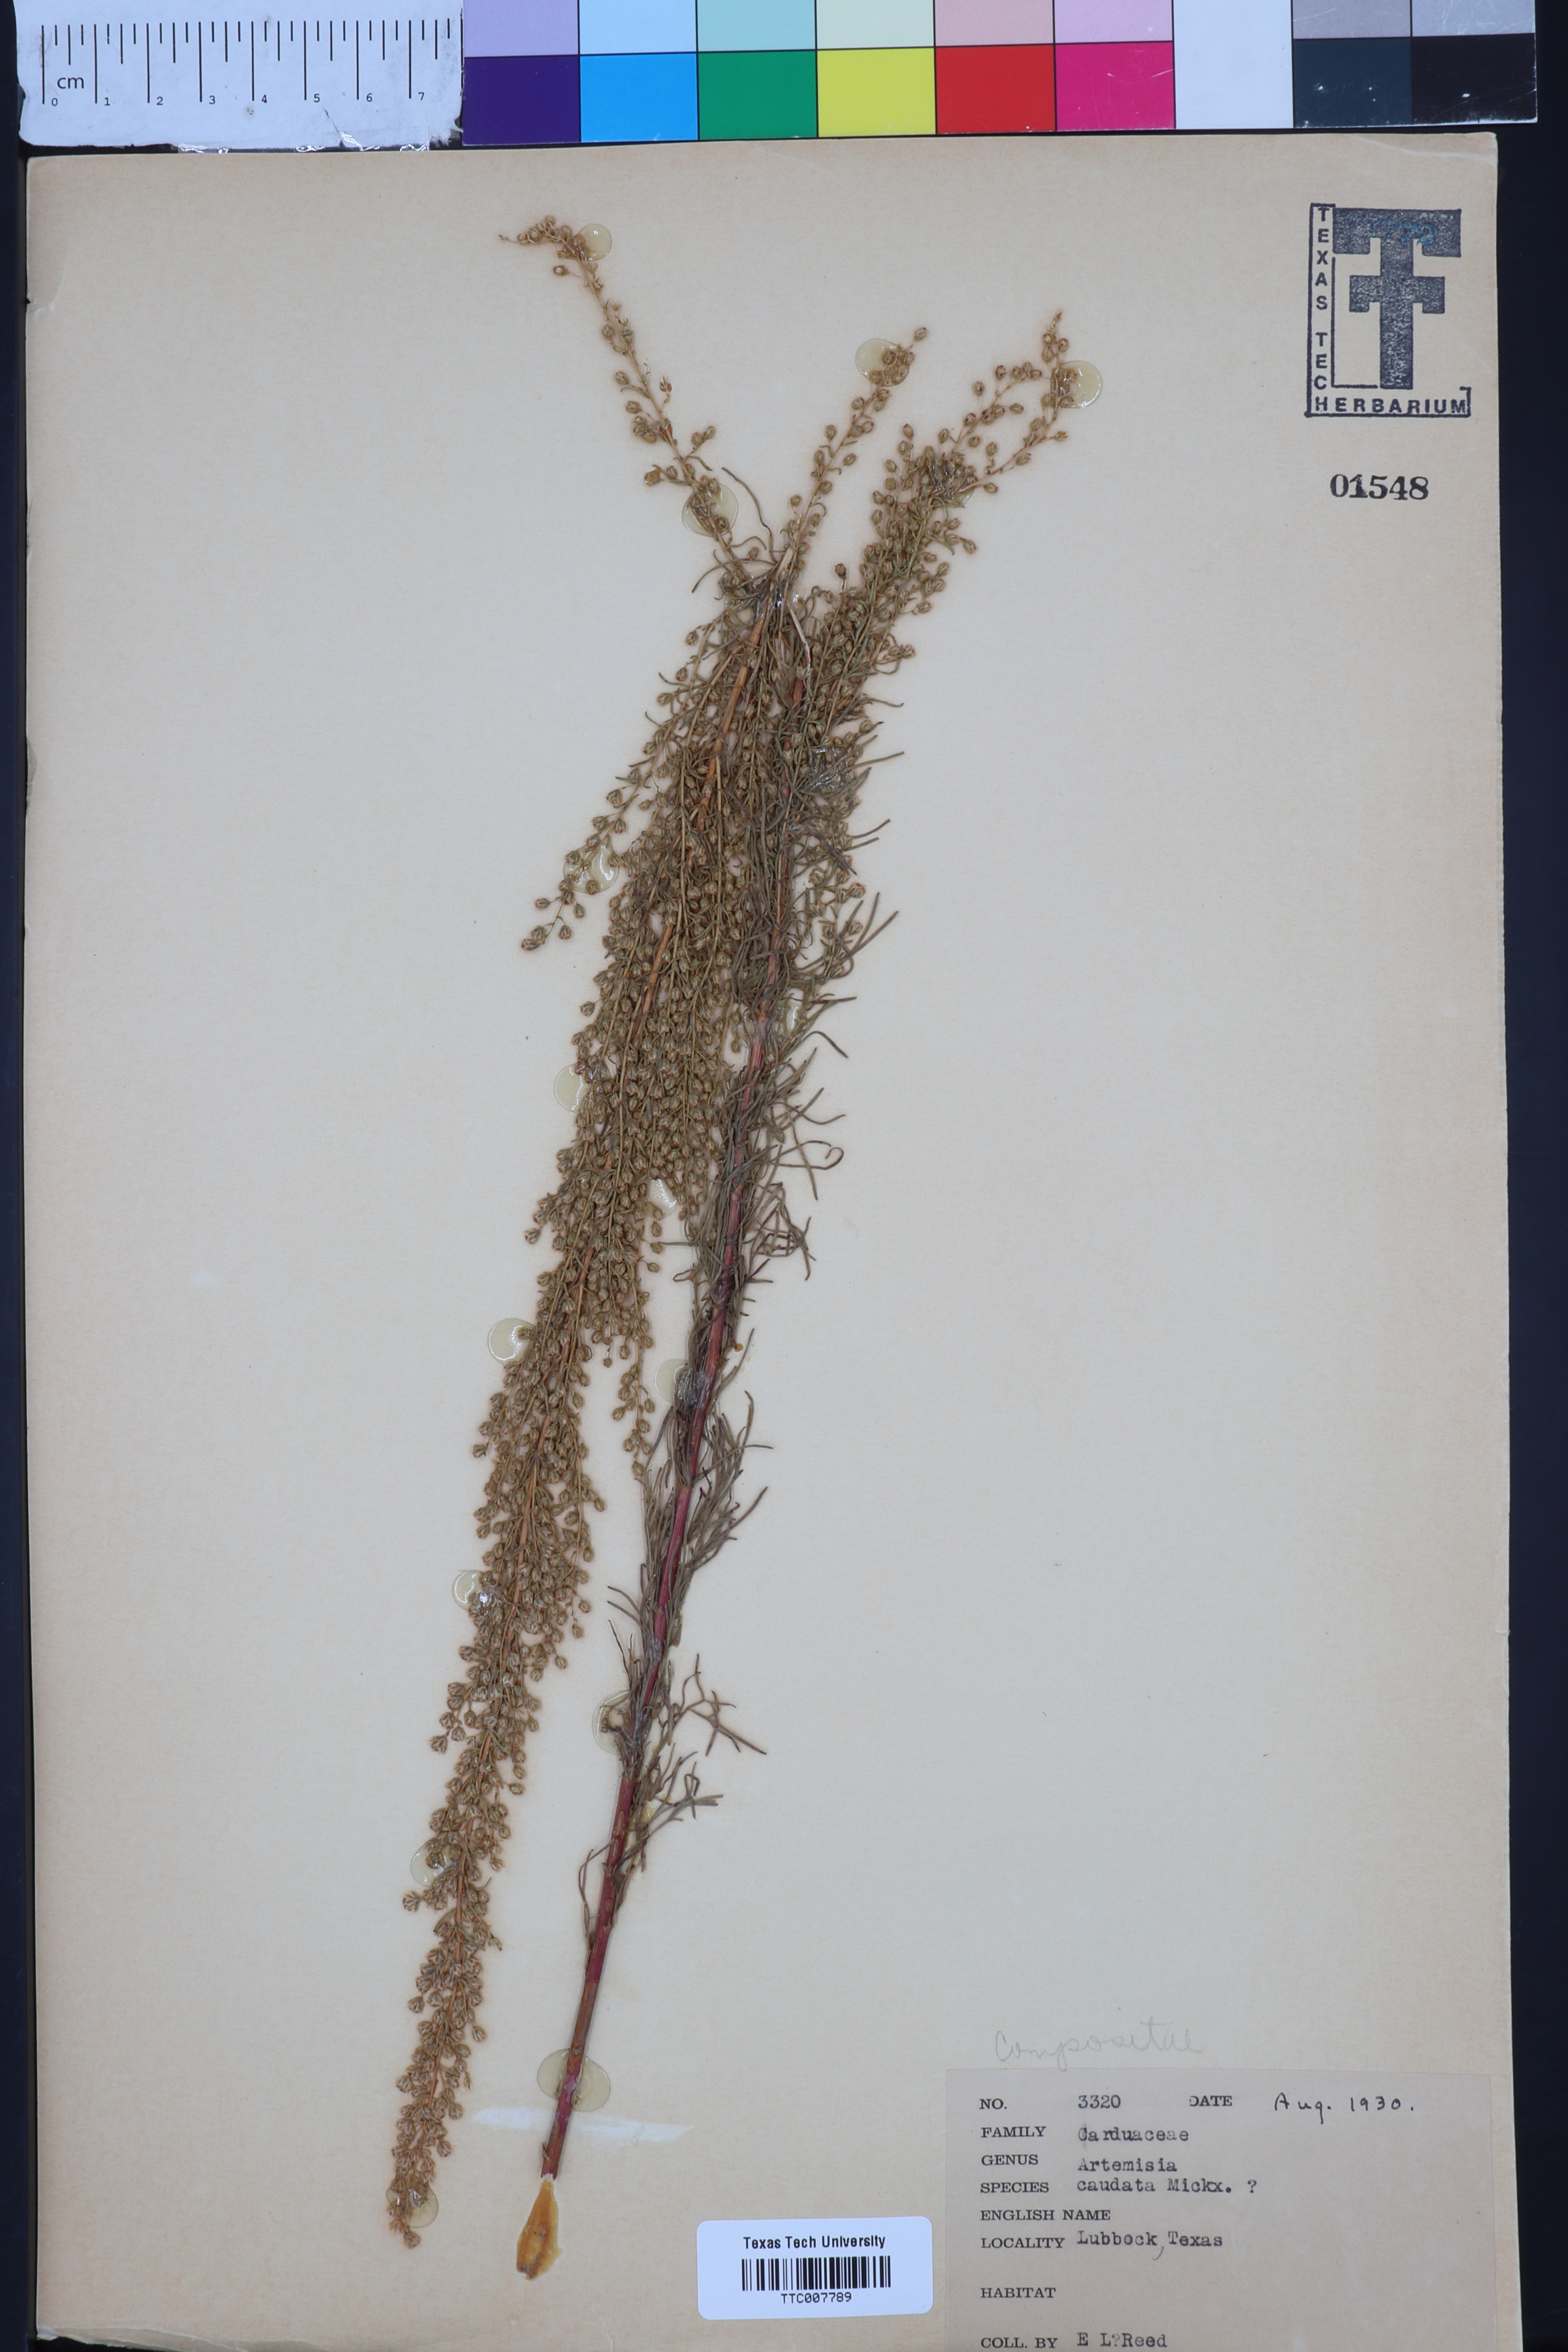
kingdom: Plantae
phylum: Tracheophyta
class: Magnoliopsida
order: Asterales
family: Asteraceae
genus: Artemisia
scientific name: Artemisia campestris
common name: Field wormwood
